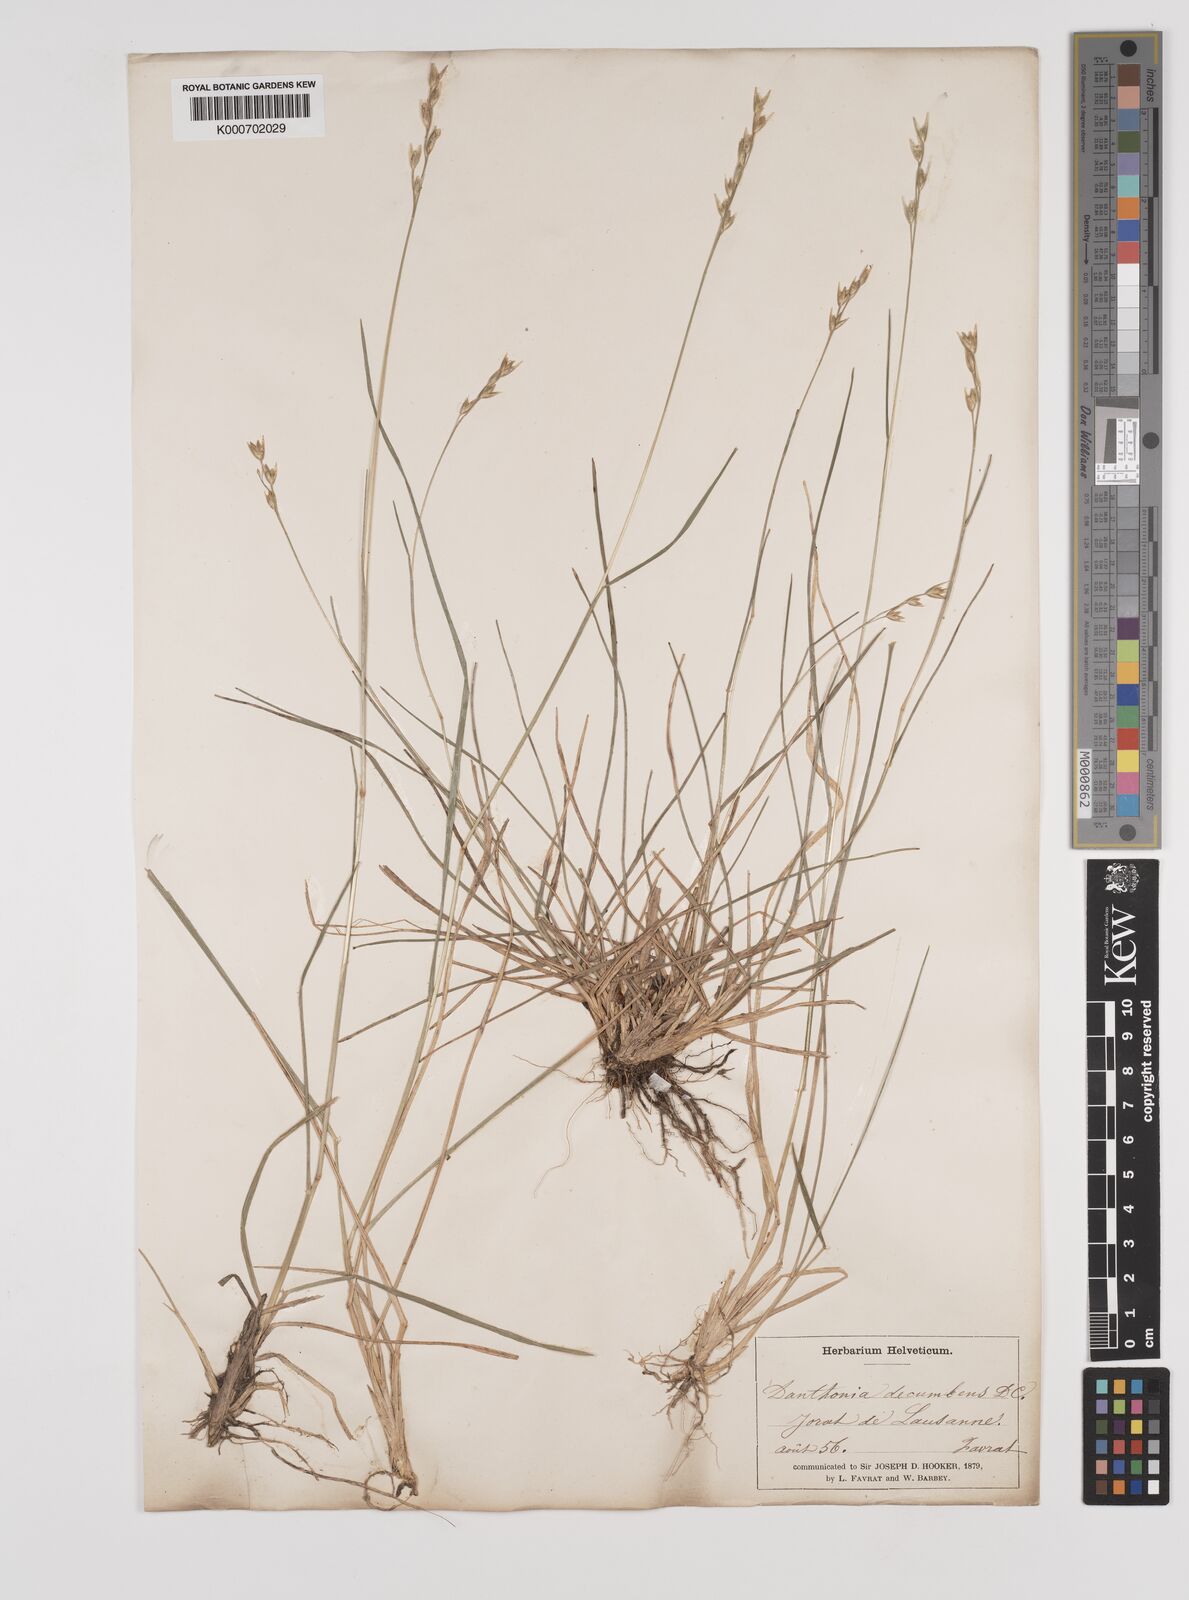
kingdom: Plantae
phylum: Tracheophyta
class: Liliopsida
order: Poales
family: Poaceae
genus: Danthonia
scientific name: Danthonia decumbens
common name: Common heathgrass
